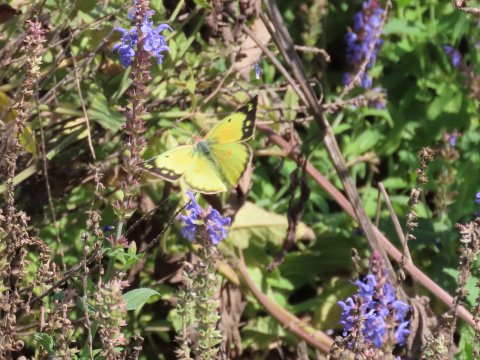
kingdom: Animalia
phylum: Arthropoda
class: Insecta
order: Lepidoptera
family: Pieridae
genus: Colias
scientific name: Colias eurytheme
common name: Orange Sulphur
